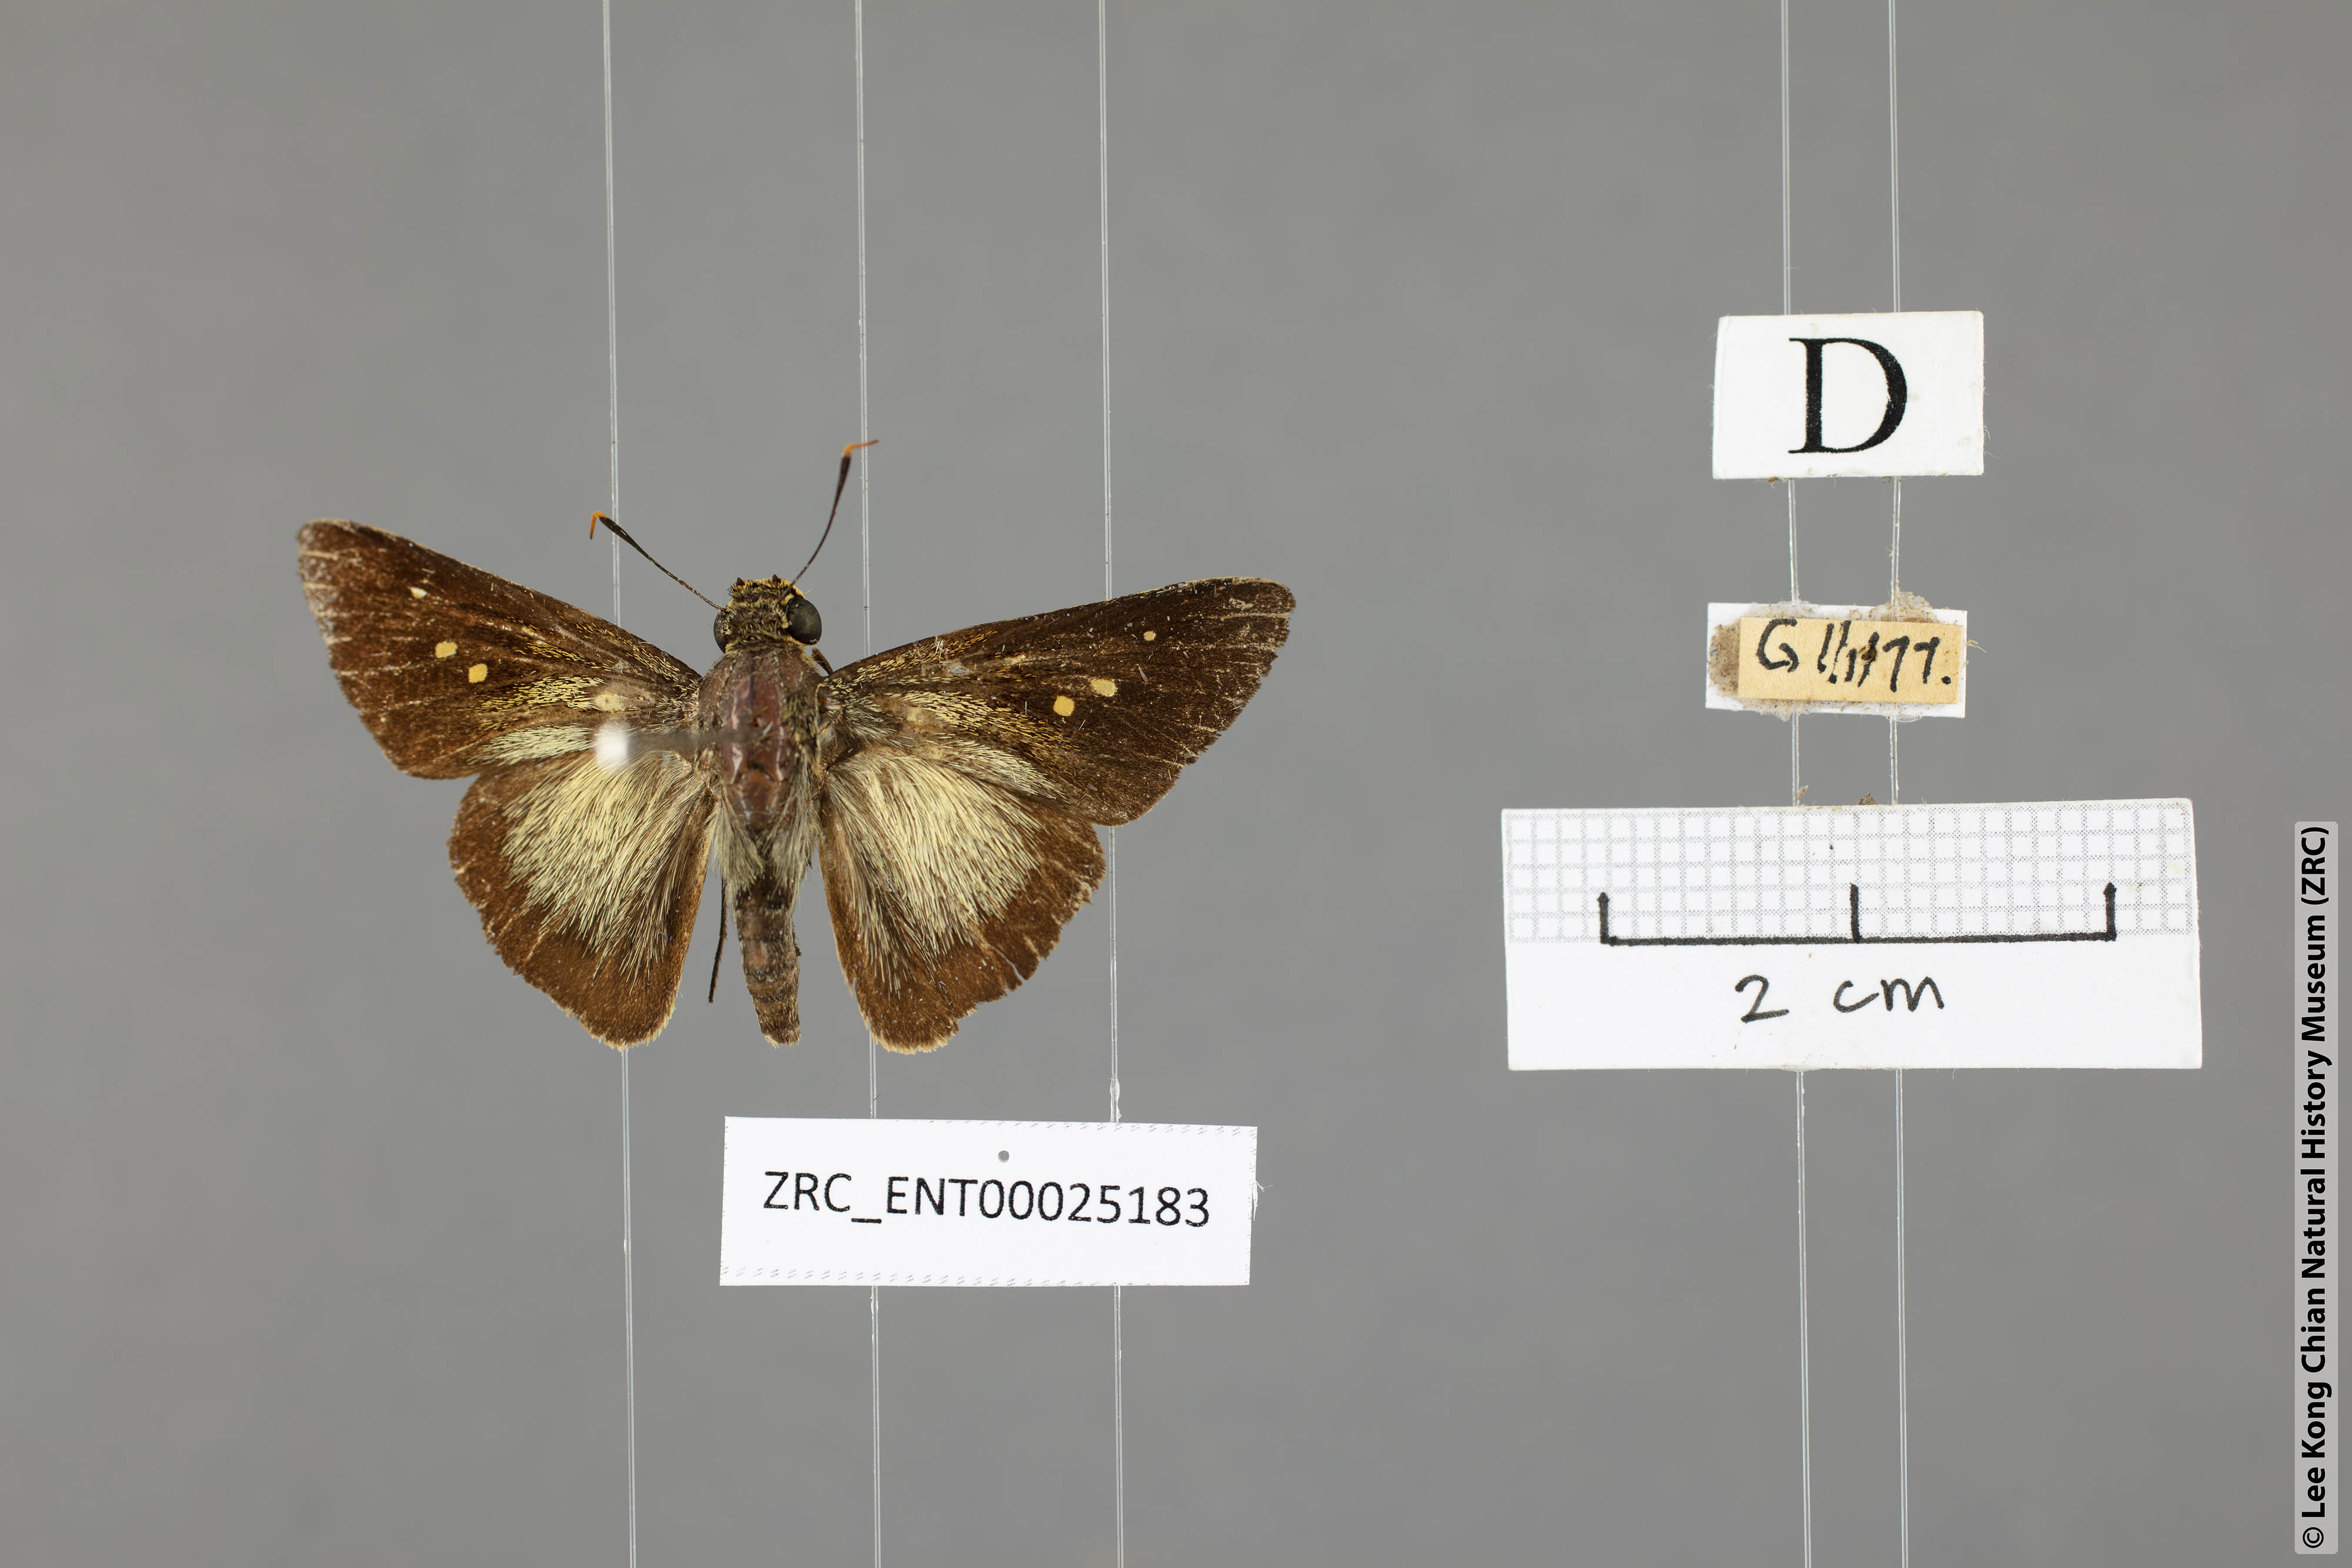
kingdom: Animalia
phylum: Arthropoda
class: Insecta
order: Lepidoptera
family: Hesperiidae
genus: Pithauria
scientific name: Pithauria stramineipennis
